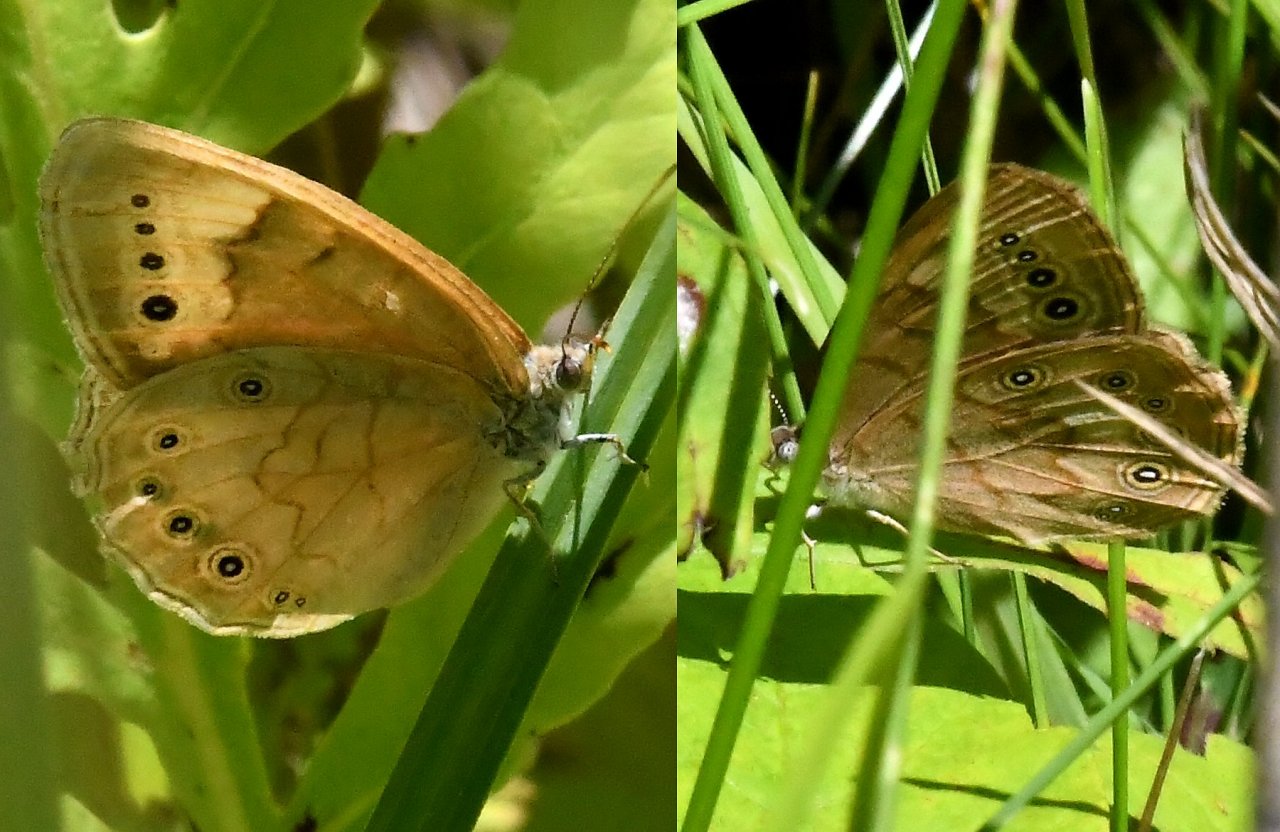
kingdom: Animalia
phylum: Arthropoda
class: Insecta
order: Lepidoptera
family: Nymphalidae
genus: Lethe
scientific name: Lethe eurydice
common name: Eyed Brown
